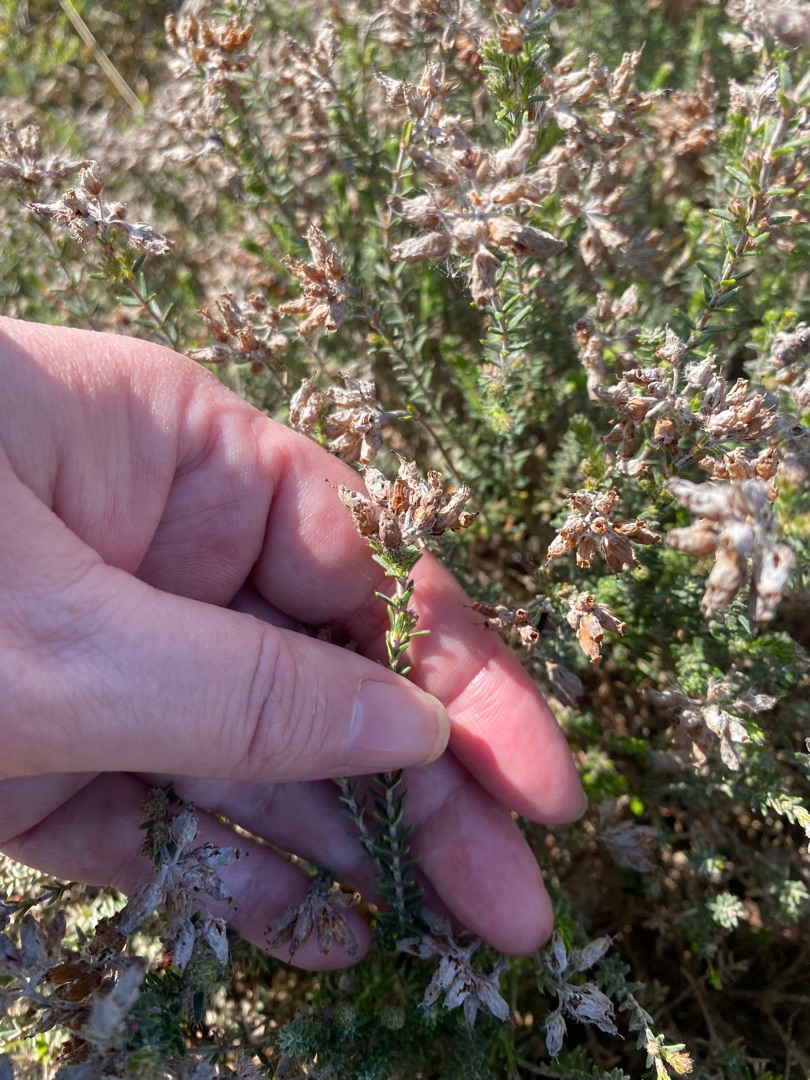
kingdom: Plantae
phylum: Tracheophyta
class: Magnoliopsida
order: Ericales
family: Ericaceae
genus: Erica
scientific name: Erica tetralix
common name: Klokkelyng
